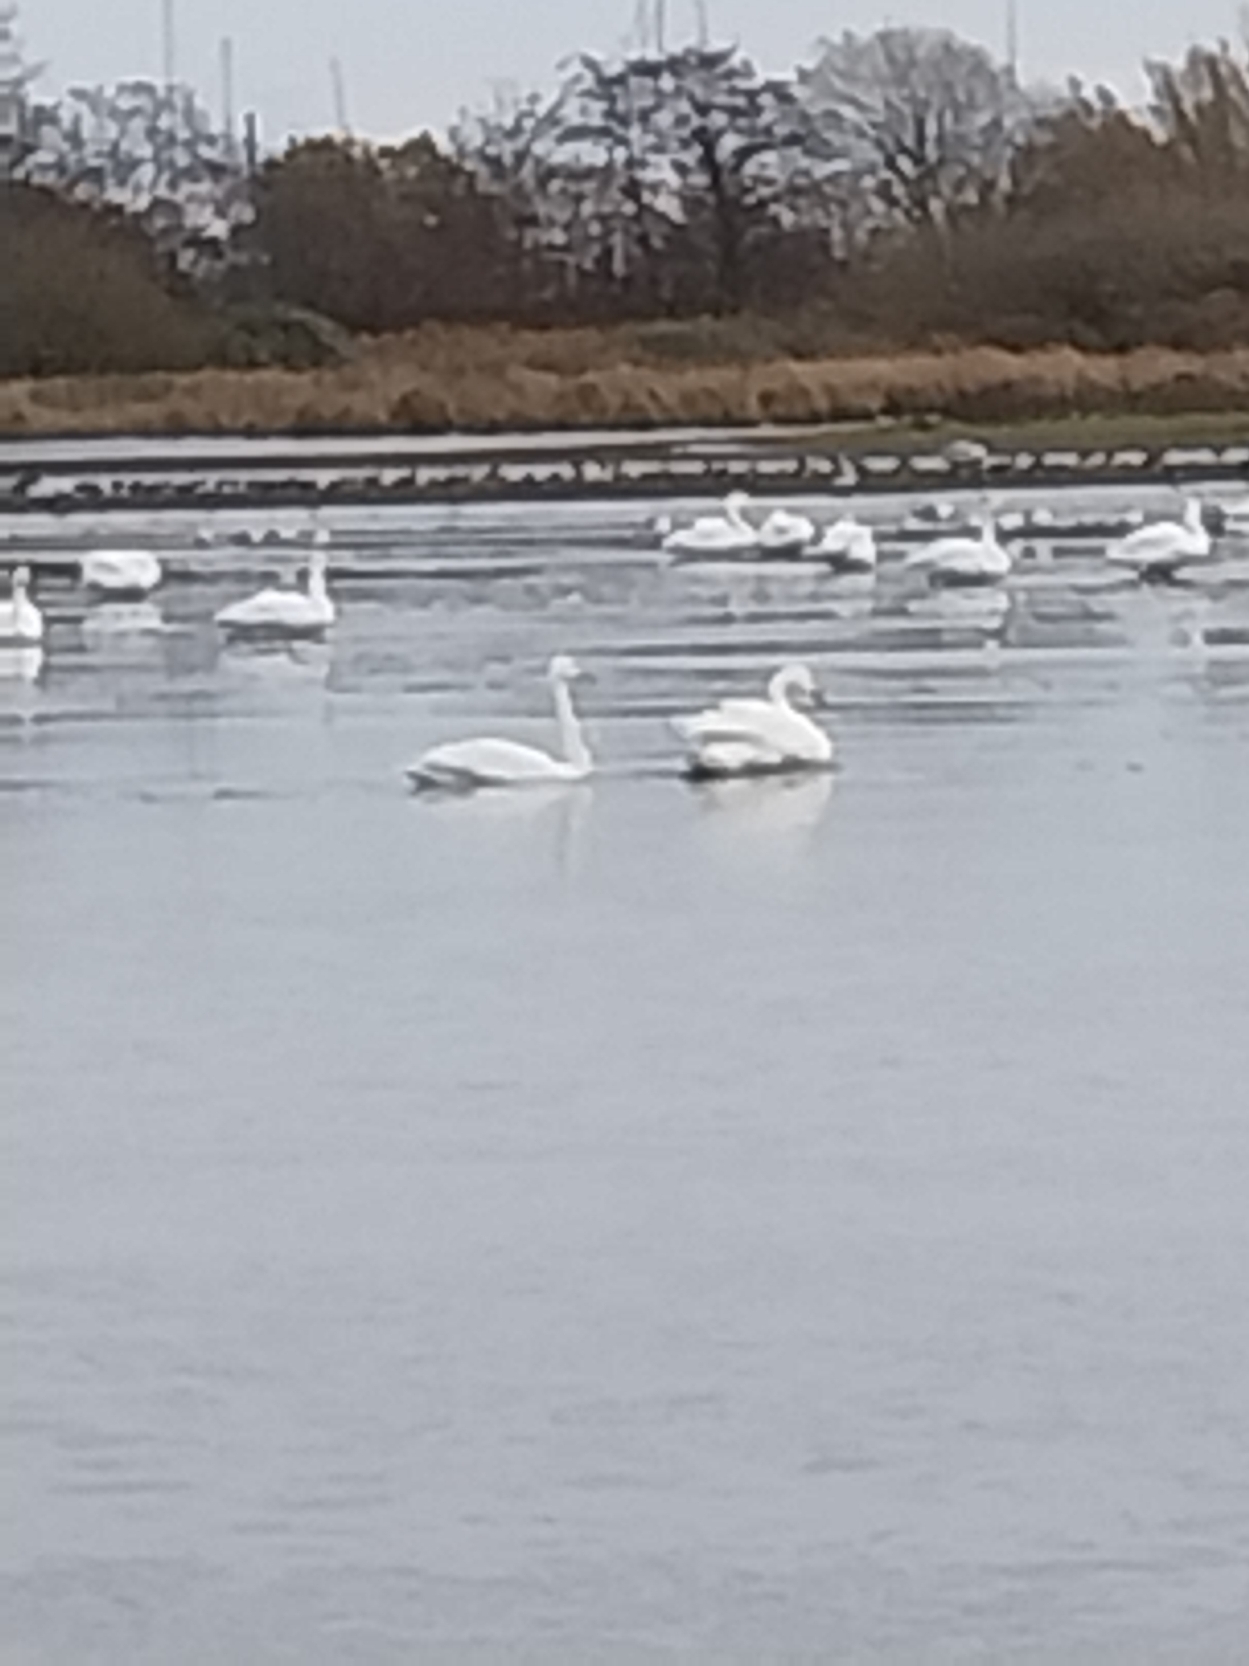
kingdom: Animalia
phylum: Chordata
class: Aves
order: Anseriformes
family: Anatidae
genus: Cygnus
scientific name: Cygnus cygnus
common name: Sangsvane
